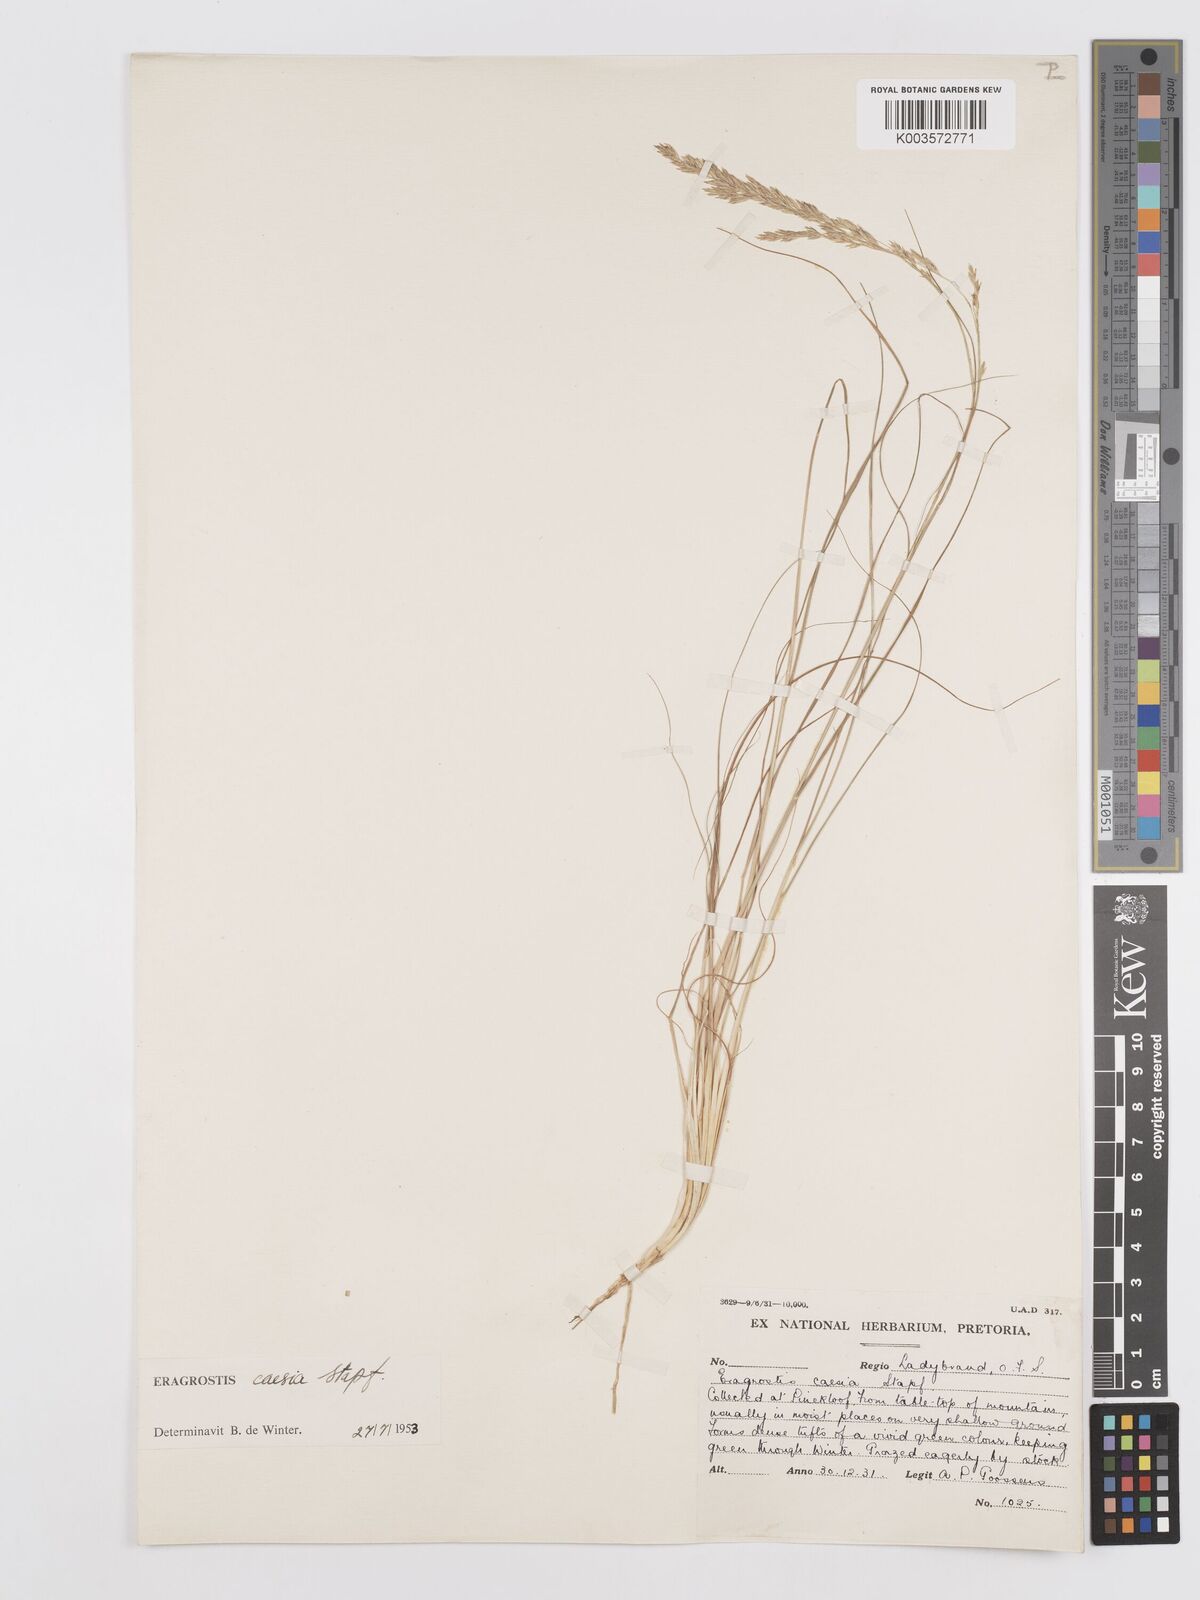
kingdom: Plantae
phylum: Tracheophyta
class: Liliopsida
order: Poales
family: Poaceae
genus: Eragrostis
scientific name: Eragrostis caesia
